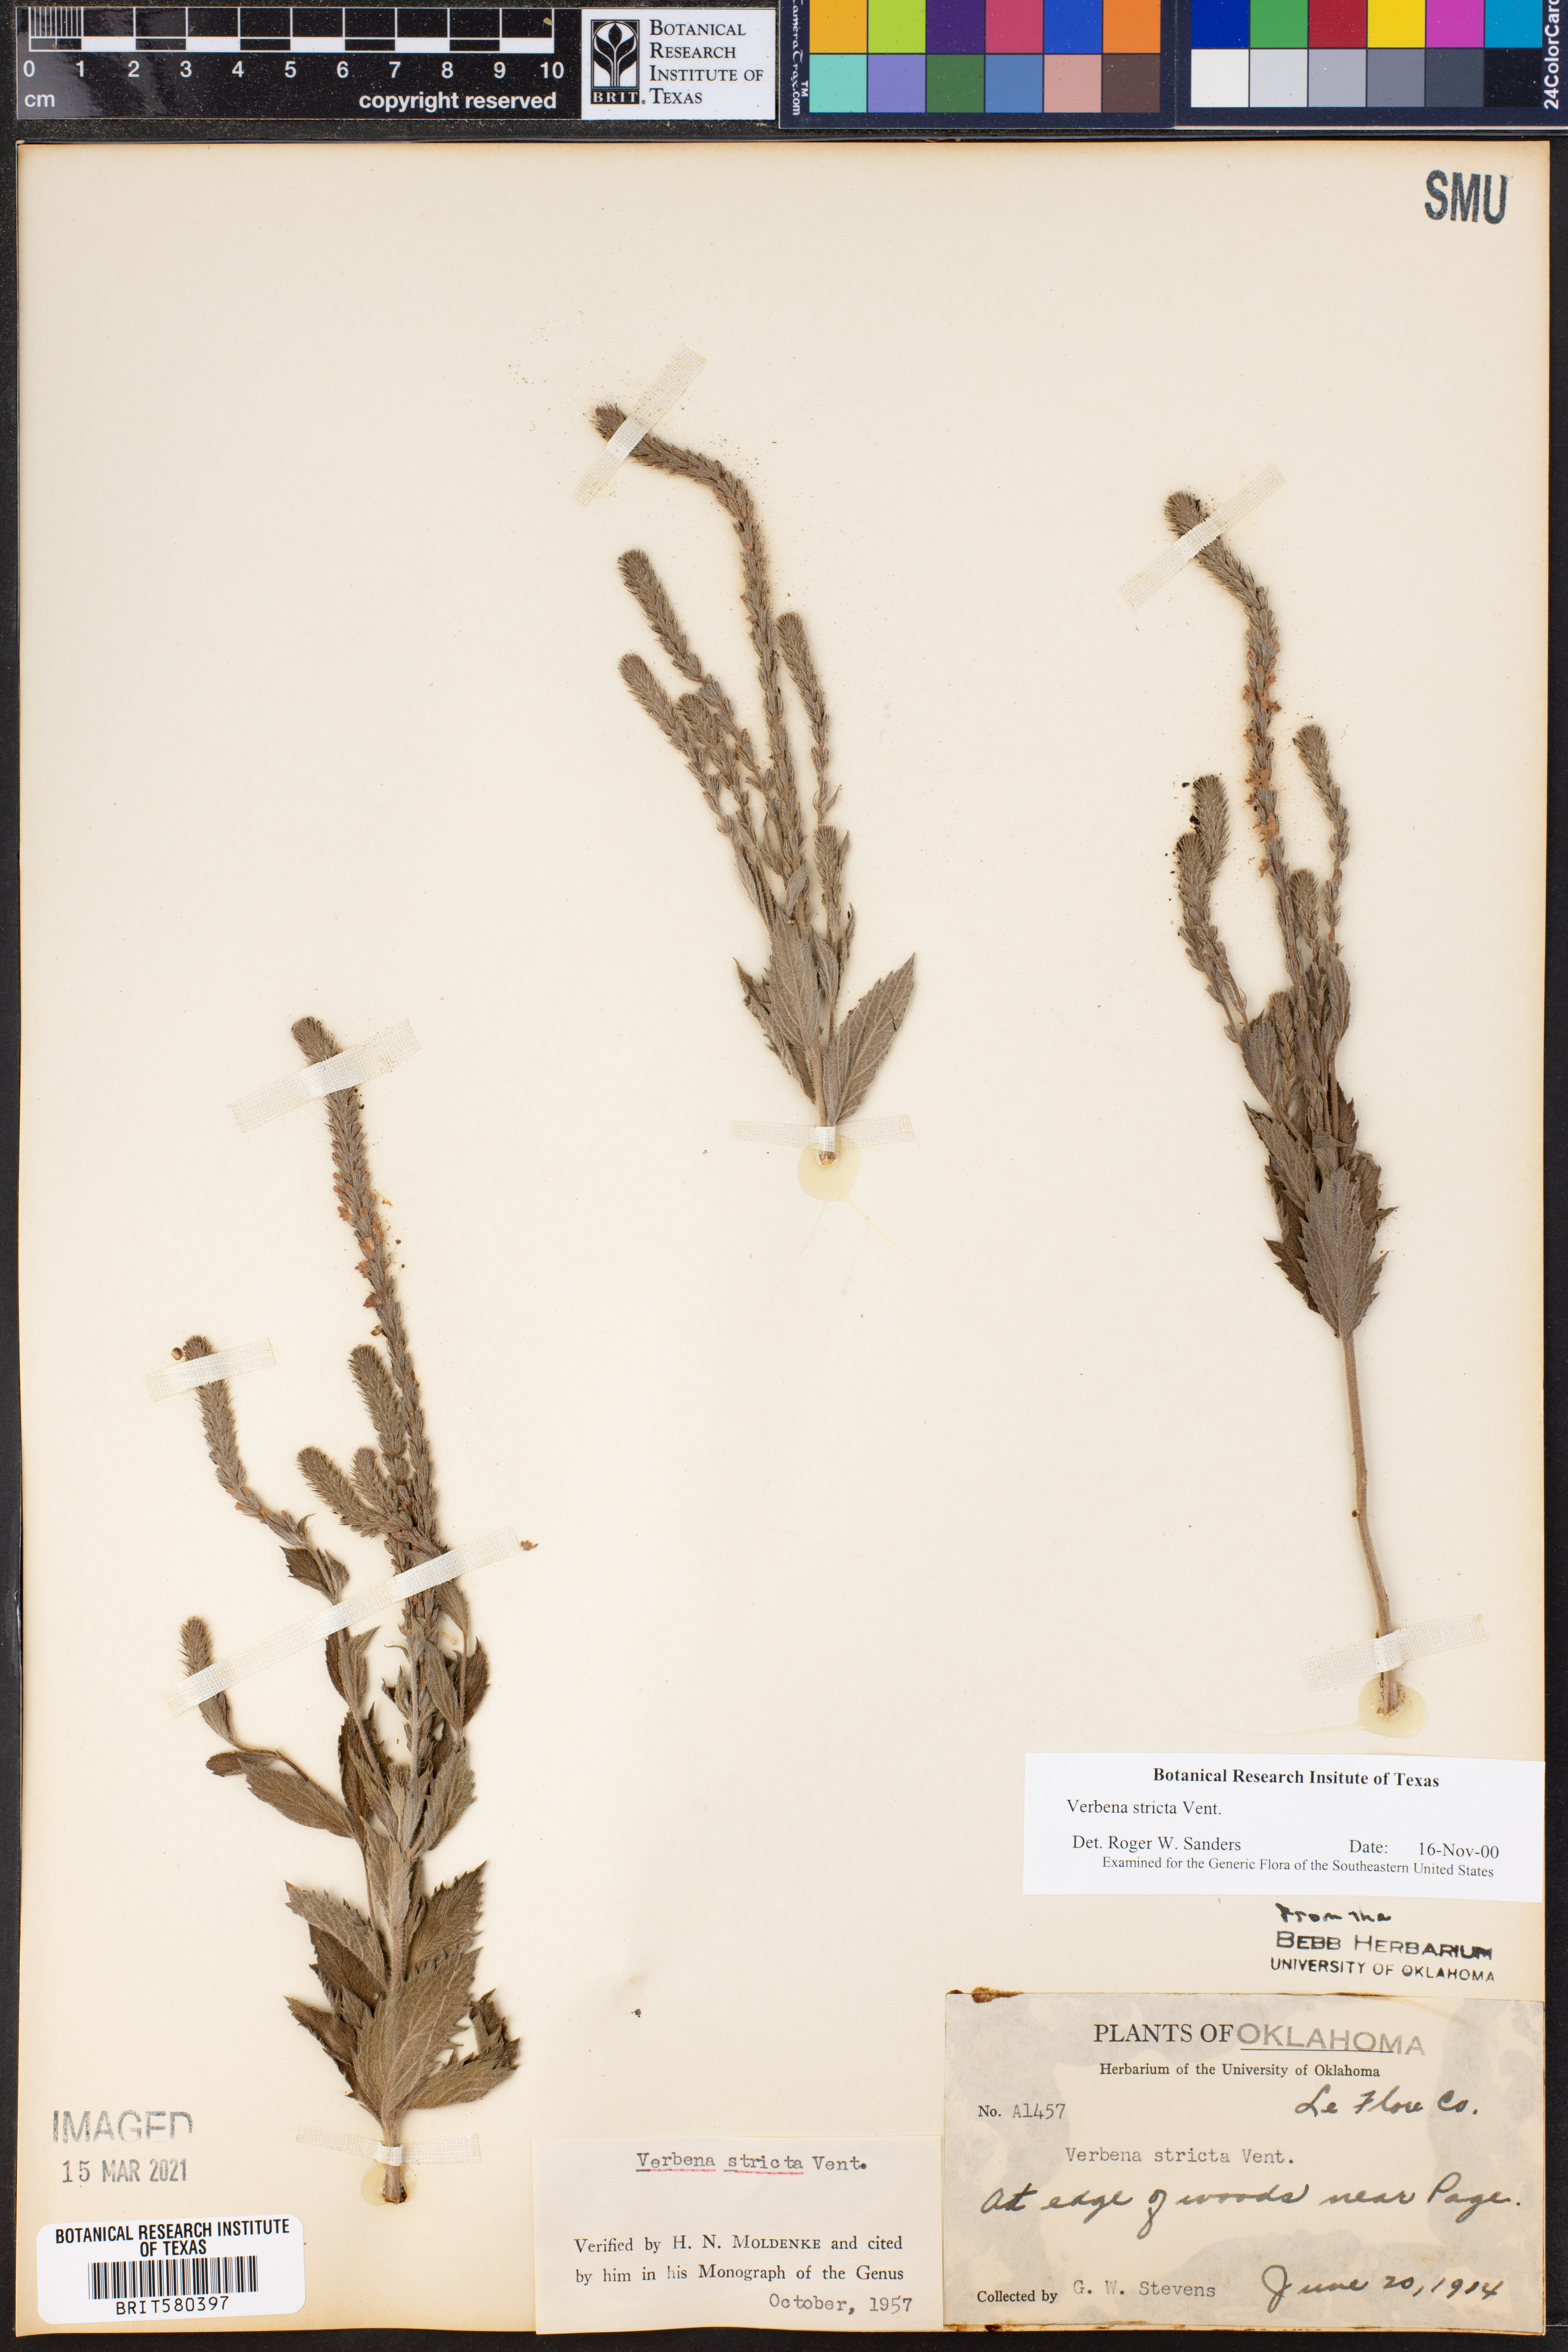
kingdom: Plantae
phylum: Tracheophyta
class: Magnoliopsida
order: Lamiales
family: Verbenaceae
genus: Verbena
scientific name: Verbena stricta
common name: Hoary vervain
